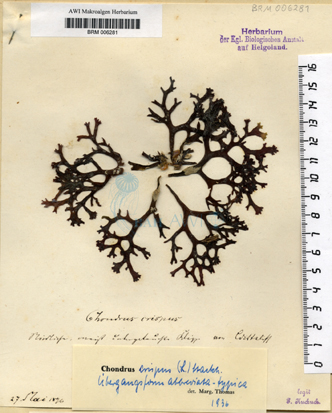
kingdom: Plantae
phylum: Rhodophyta
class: Florideophyceae
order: Gigartinales
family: Gigartinaceae
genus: Chondrus
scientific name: Chondrus crispus
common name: Carrageen
